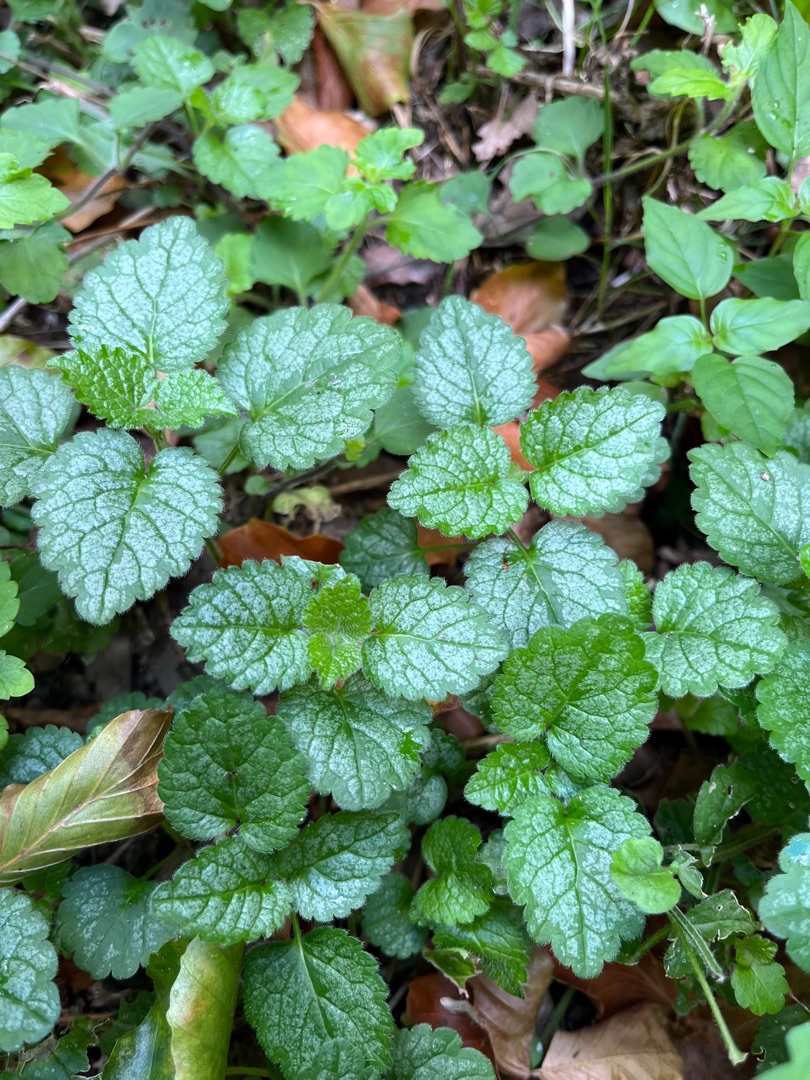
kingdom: Plantae
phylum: Tracheophyta
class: Magnoliopsida
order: Lamiales
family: Lamiaceae
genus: Lamium
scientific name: Lamium galeobdolon
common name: Have-guldnælde
